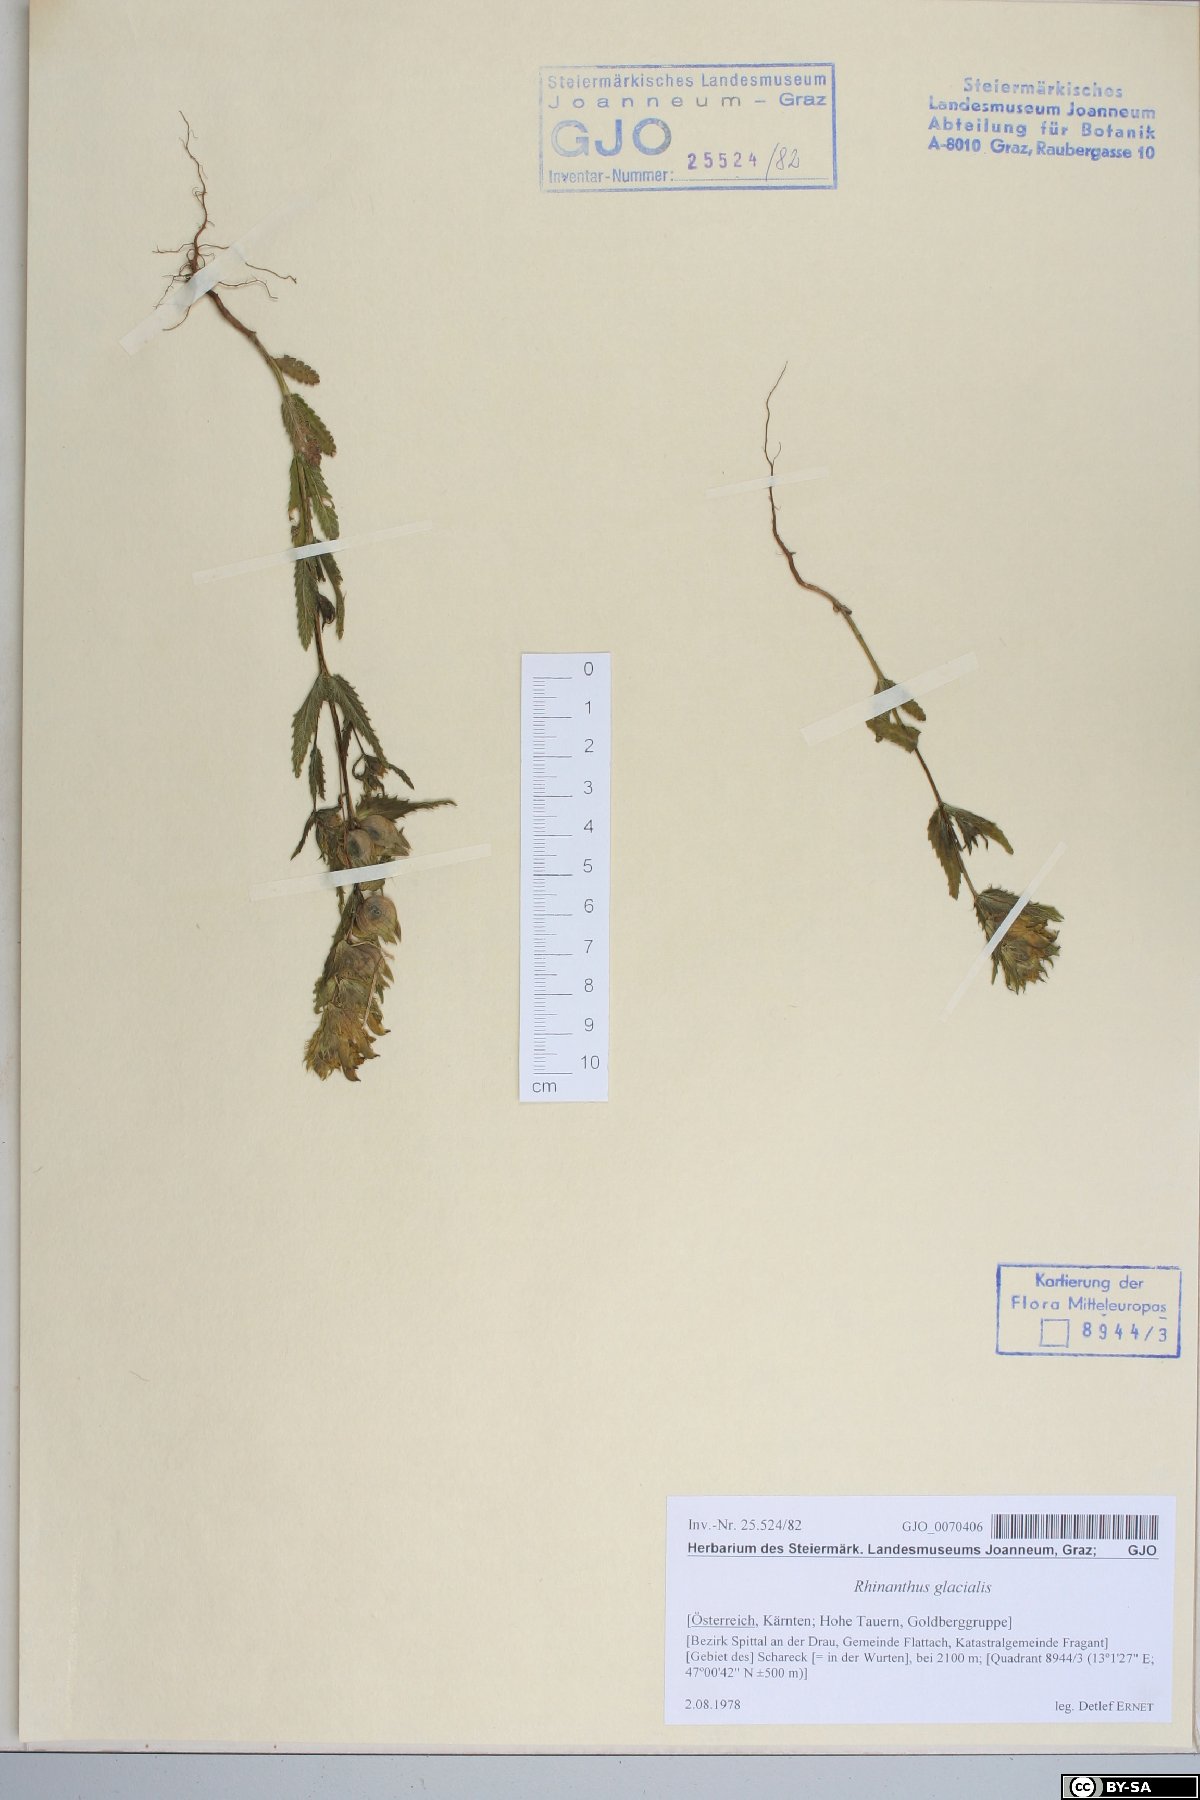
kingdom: Plantae
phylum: Tracheophyta
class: Magnoliopsida
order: Lamiales
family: Orobanchaceae
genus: Rhinanthus
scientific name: Rhinanthus glacialis
